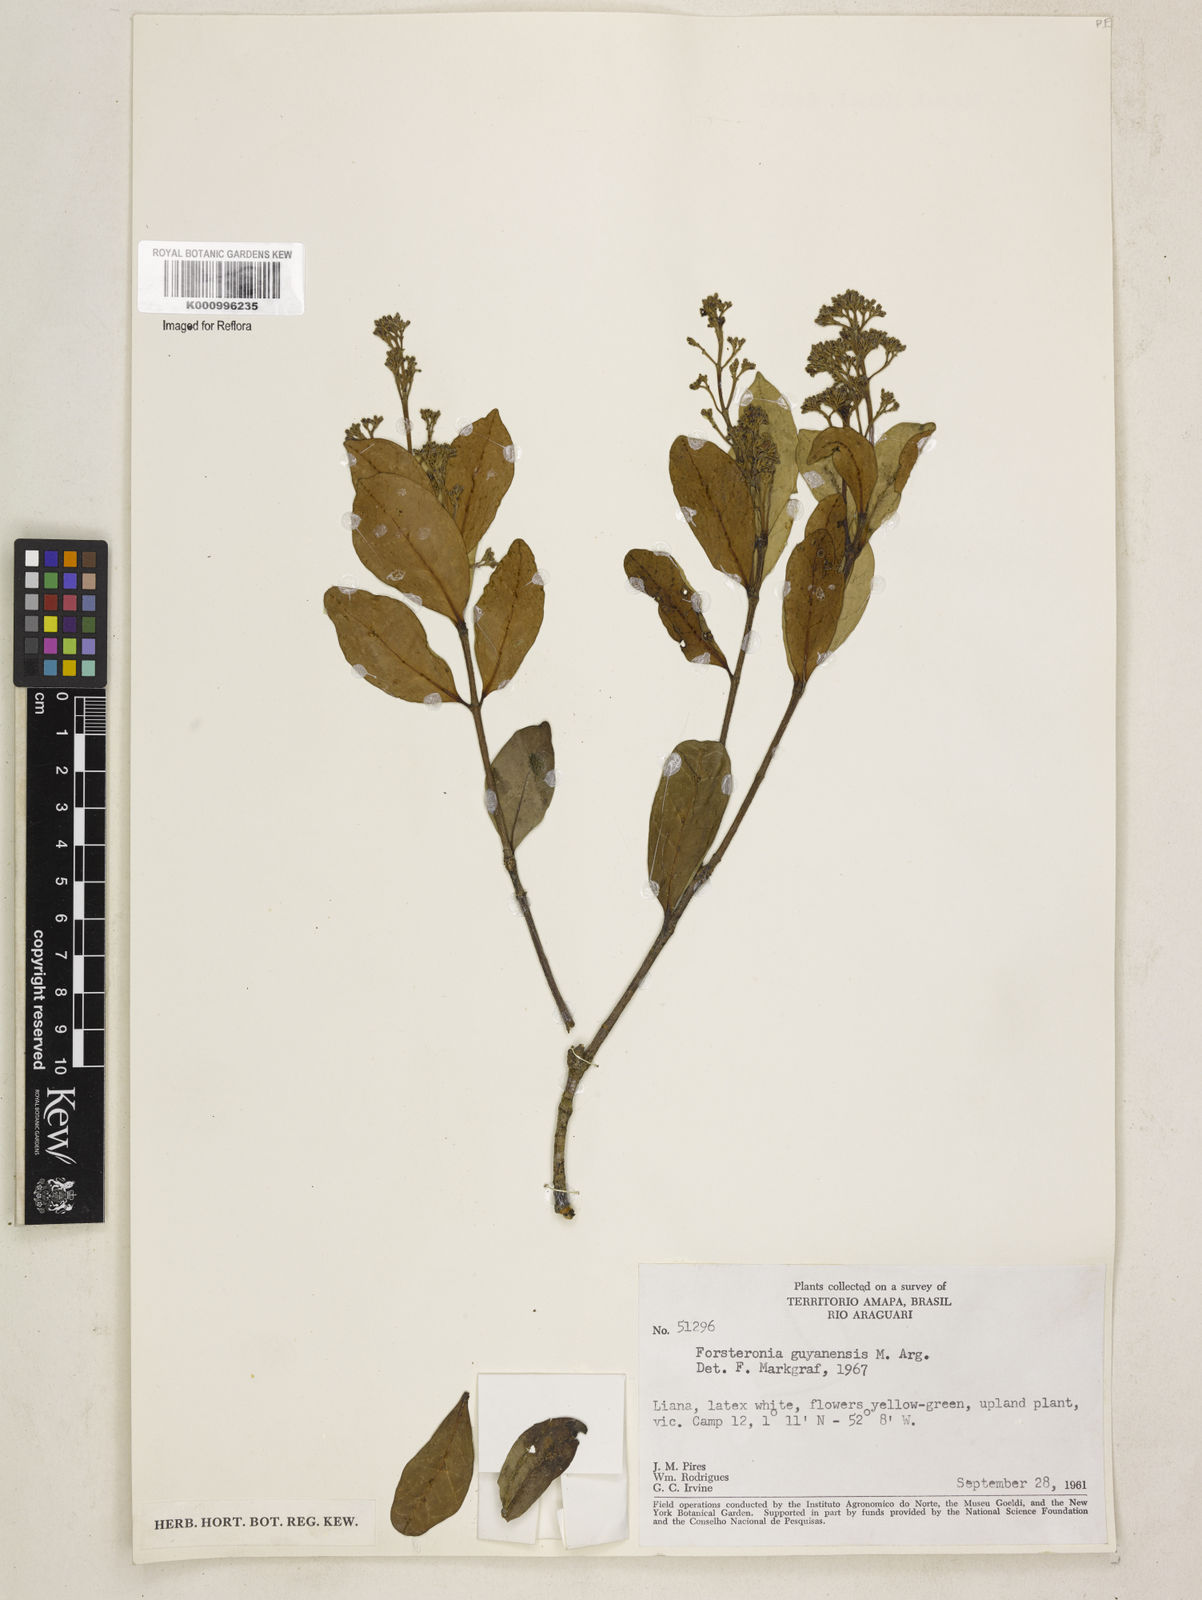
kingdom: Plantae
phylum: Tracheophyta
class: Magnoliopsida
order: Gentianales
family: Apocynaceae
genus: Forsteronia
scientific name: Forsteronia
